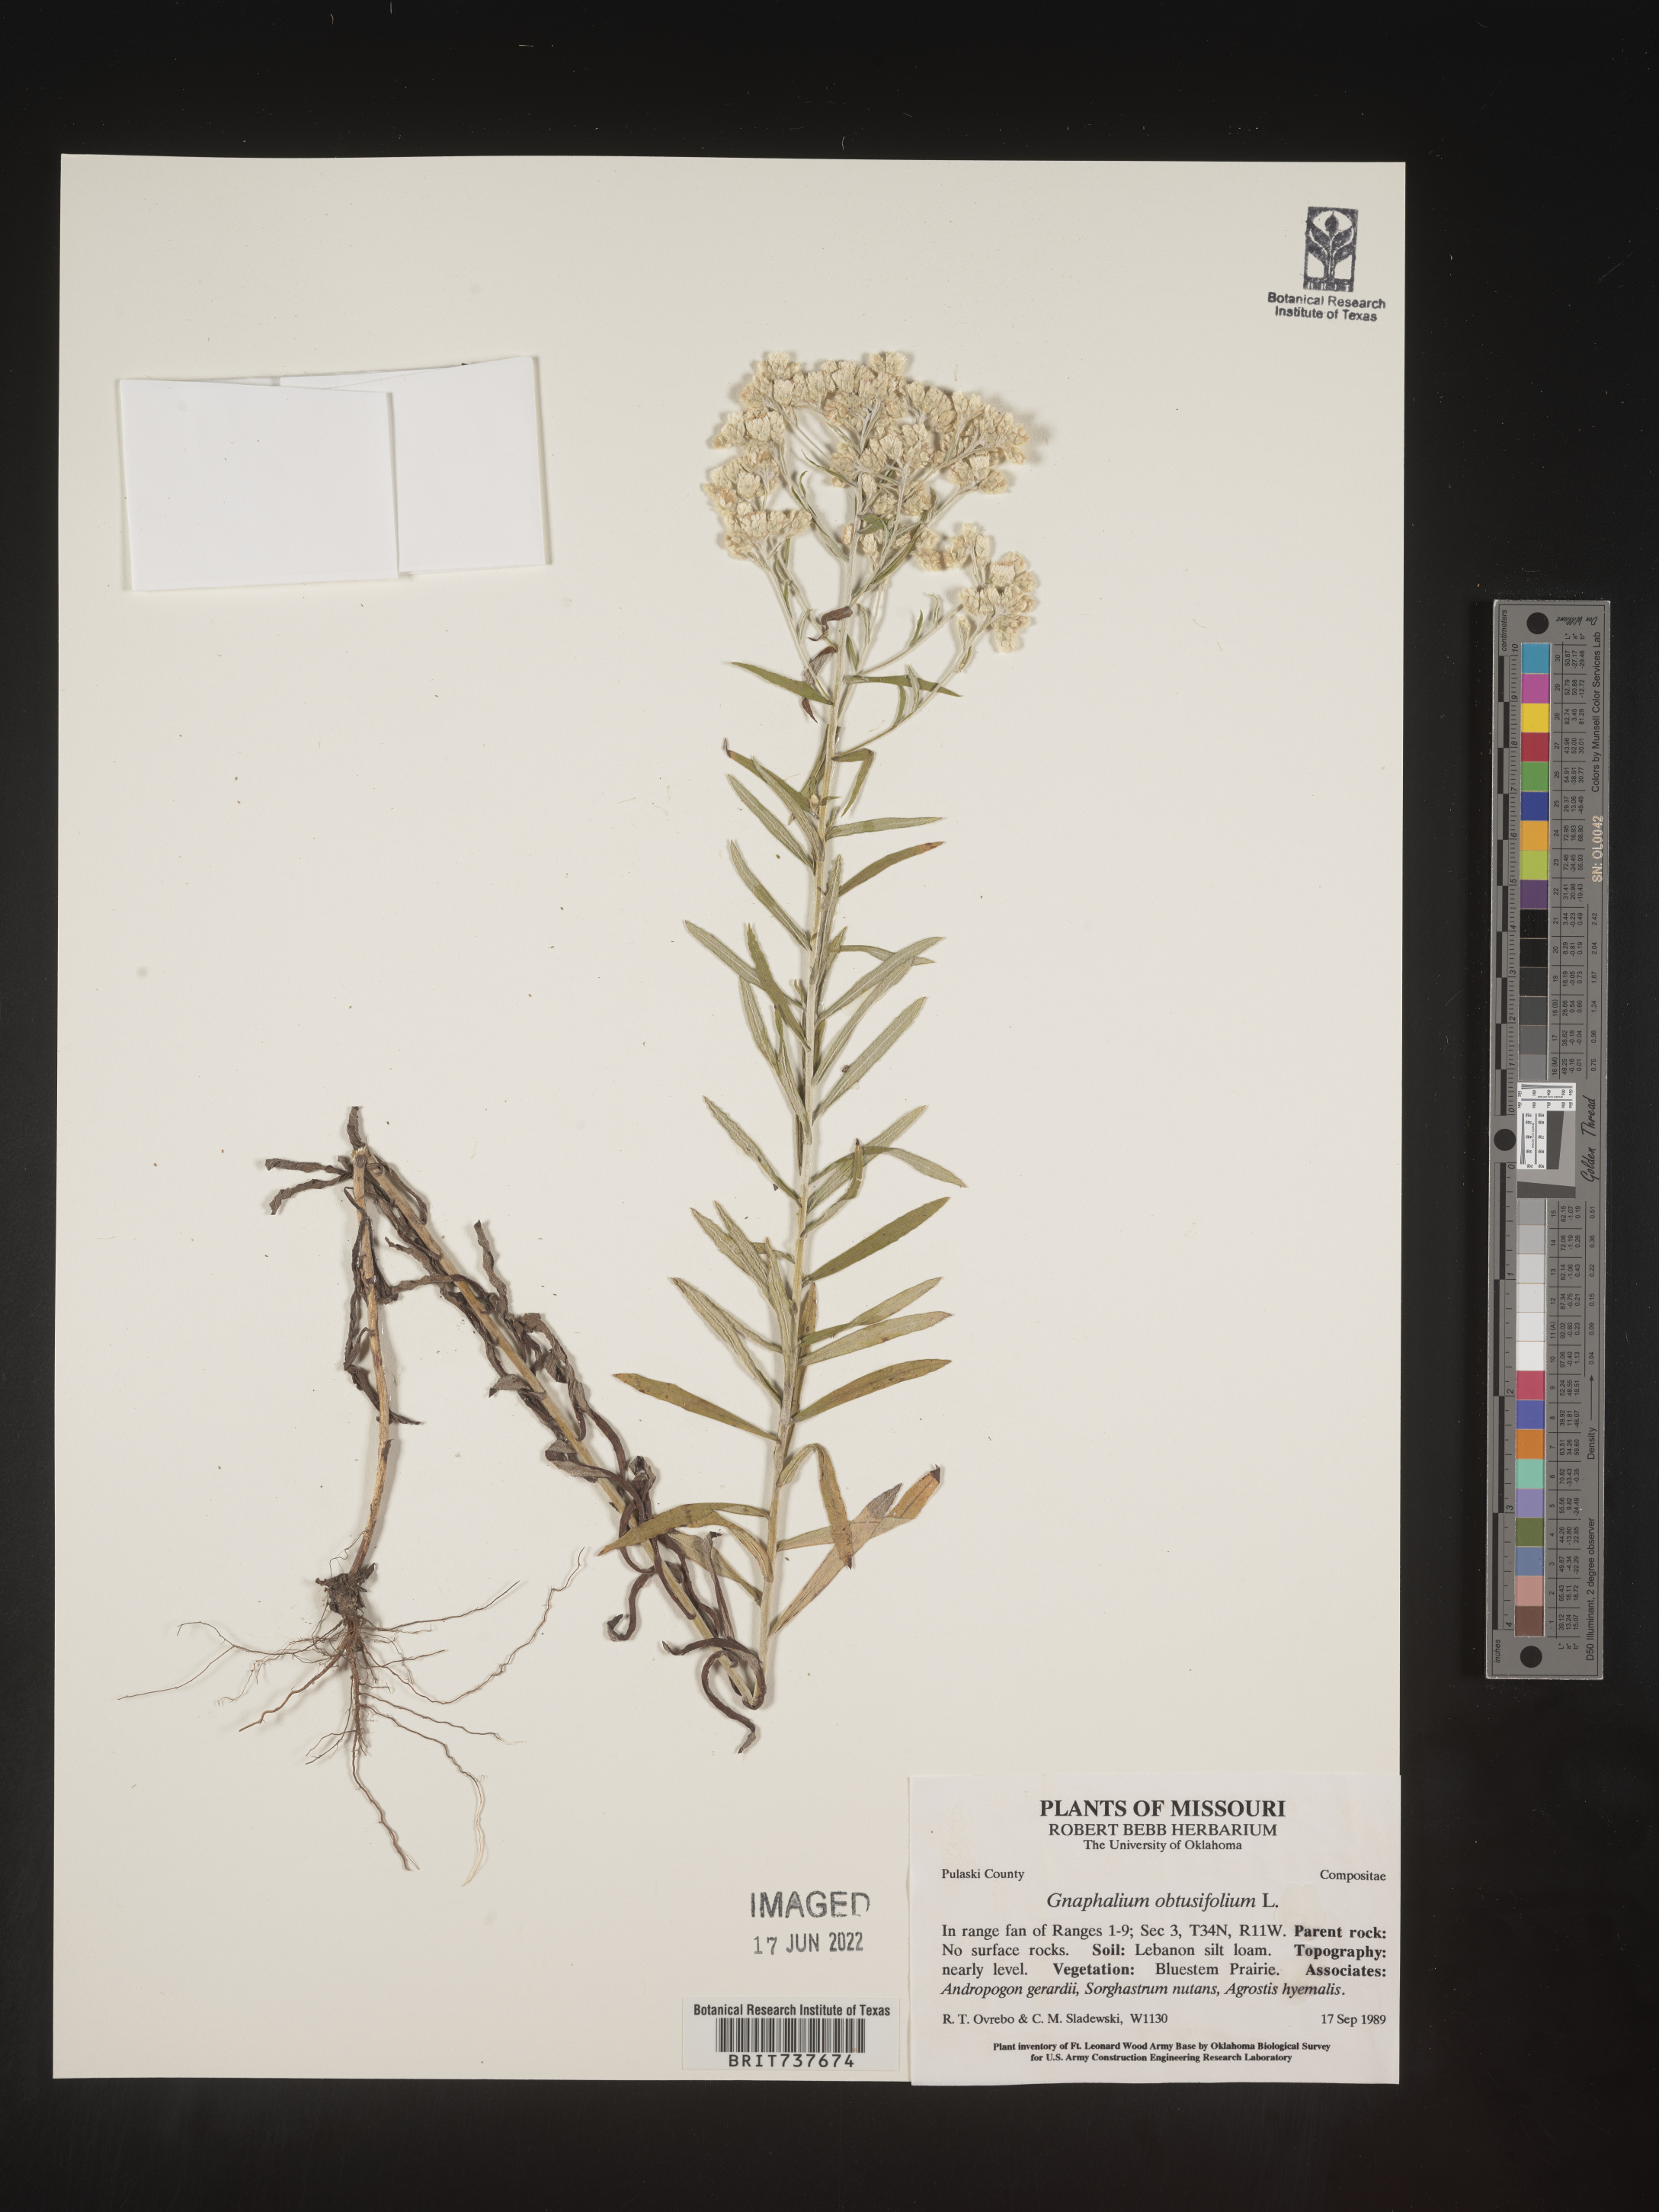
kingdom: Plantae
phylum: Tracheophyta
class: Magnoliopsida
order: Asterales
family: Asteraceae
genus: Pseudognaphalium
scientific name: Pseudognaphalium obtusifolium
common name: Eastern rabbit-tobacco
